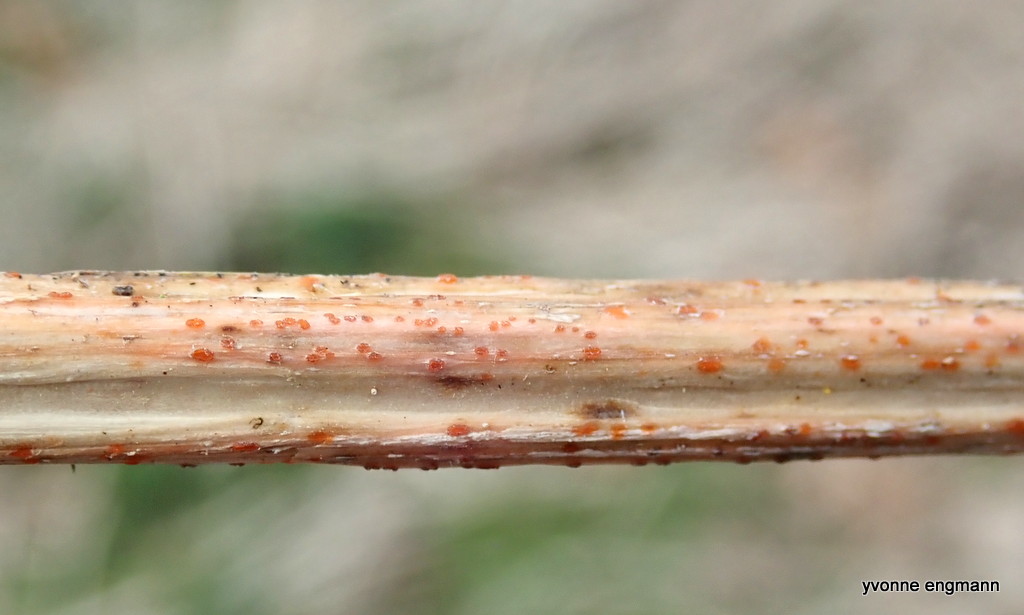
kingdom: Fungi
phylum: Ascomycota
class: Leotiomycetes
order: Helotiales
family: Calloriaceae
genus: Calloria
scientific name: Calloria urticae
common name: nælde-orangeskive
